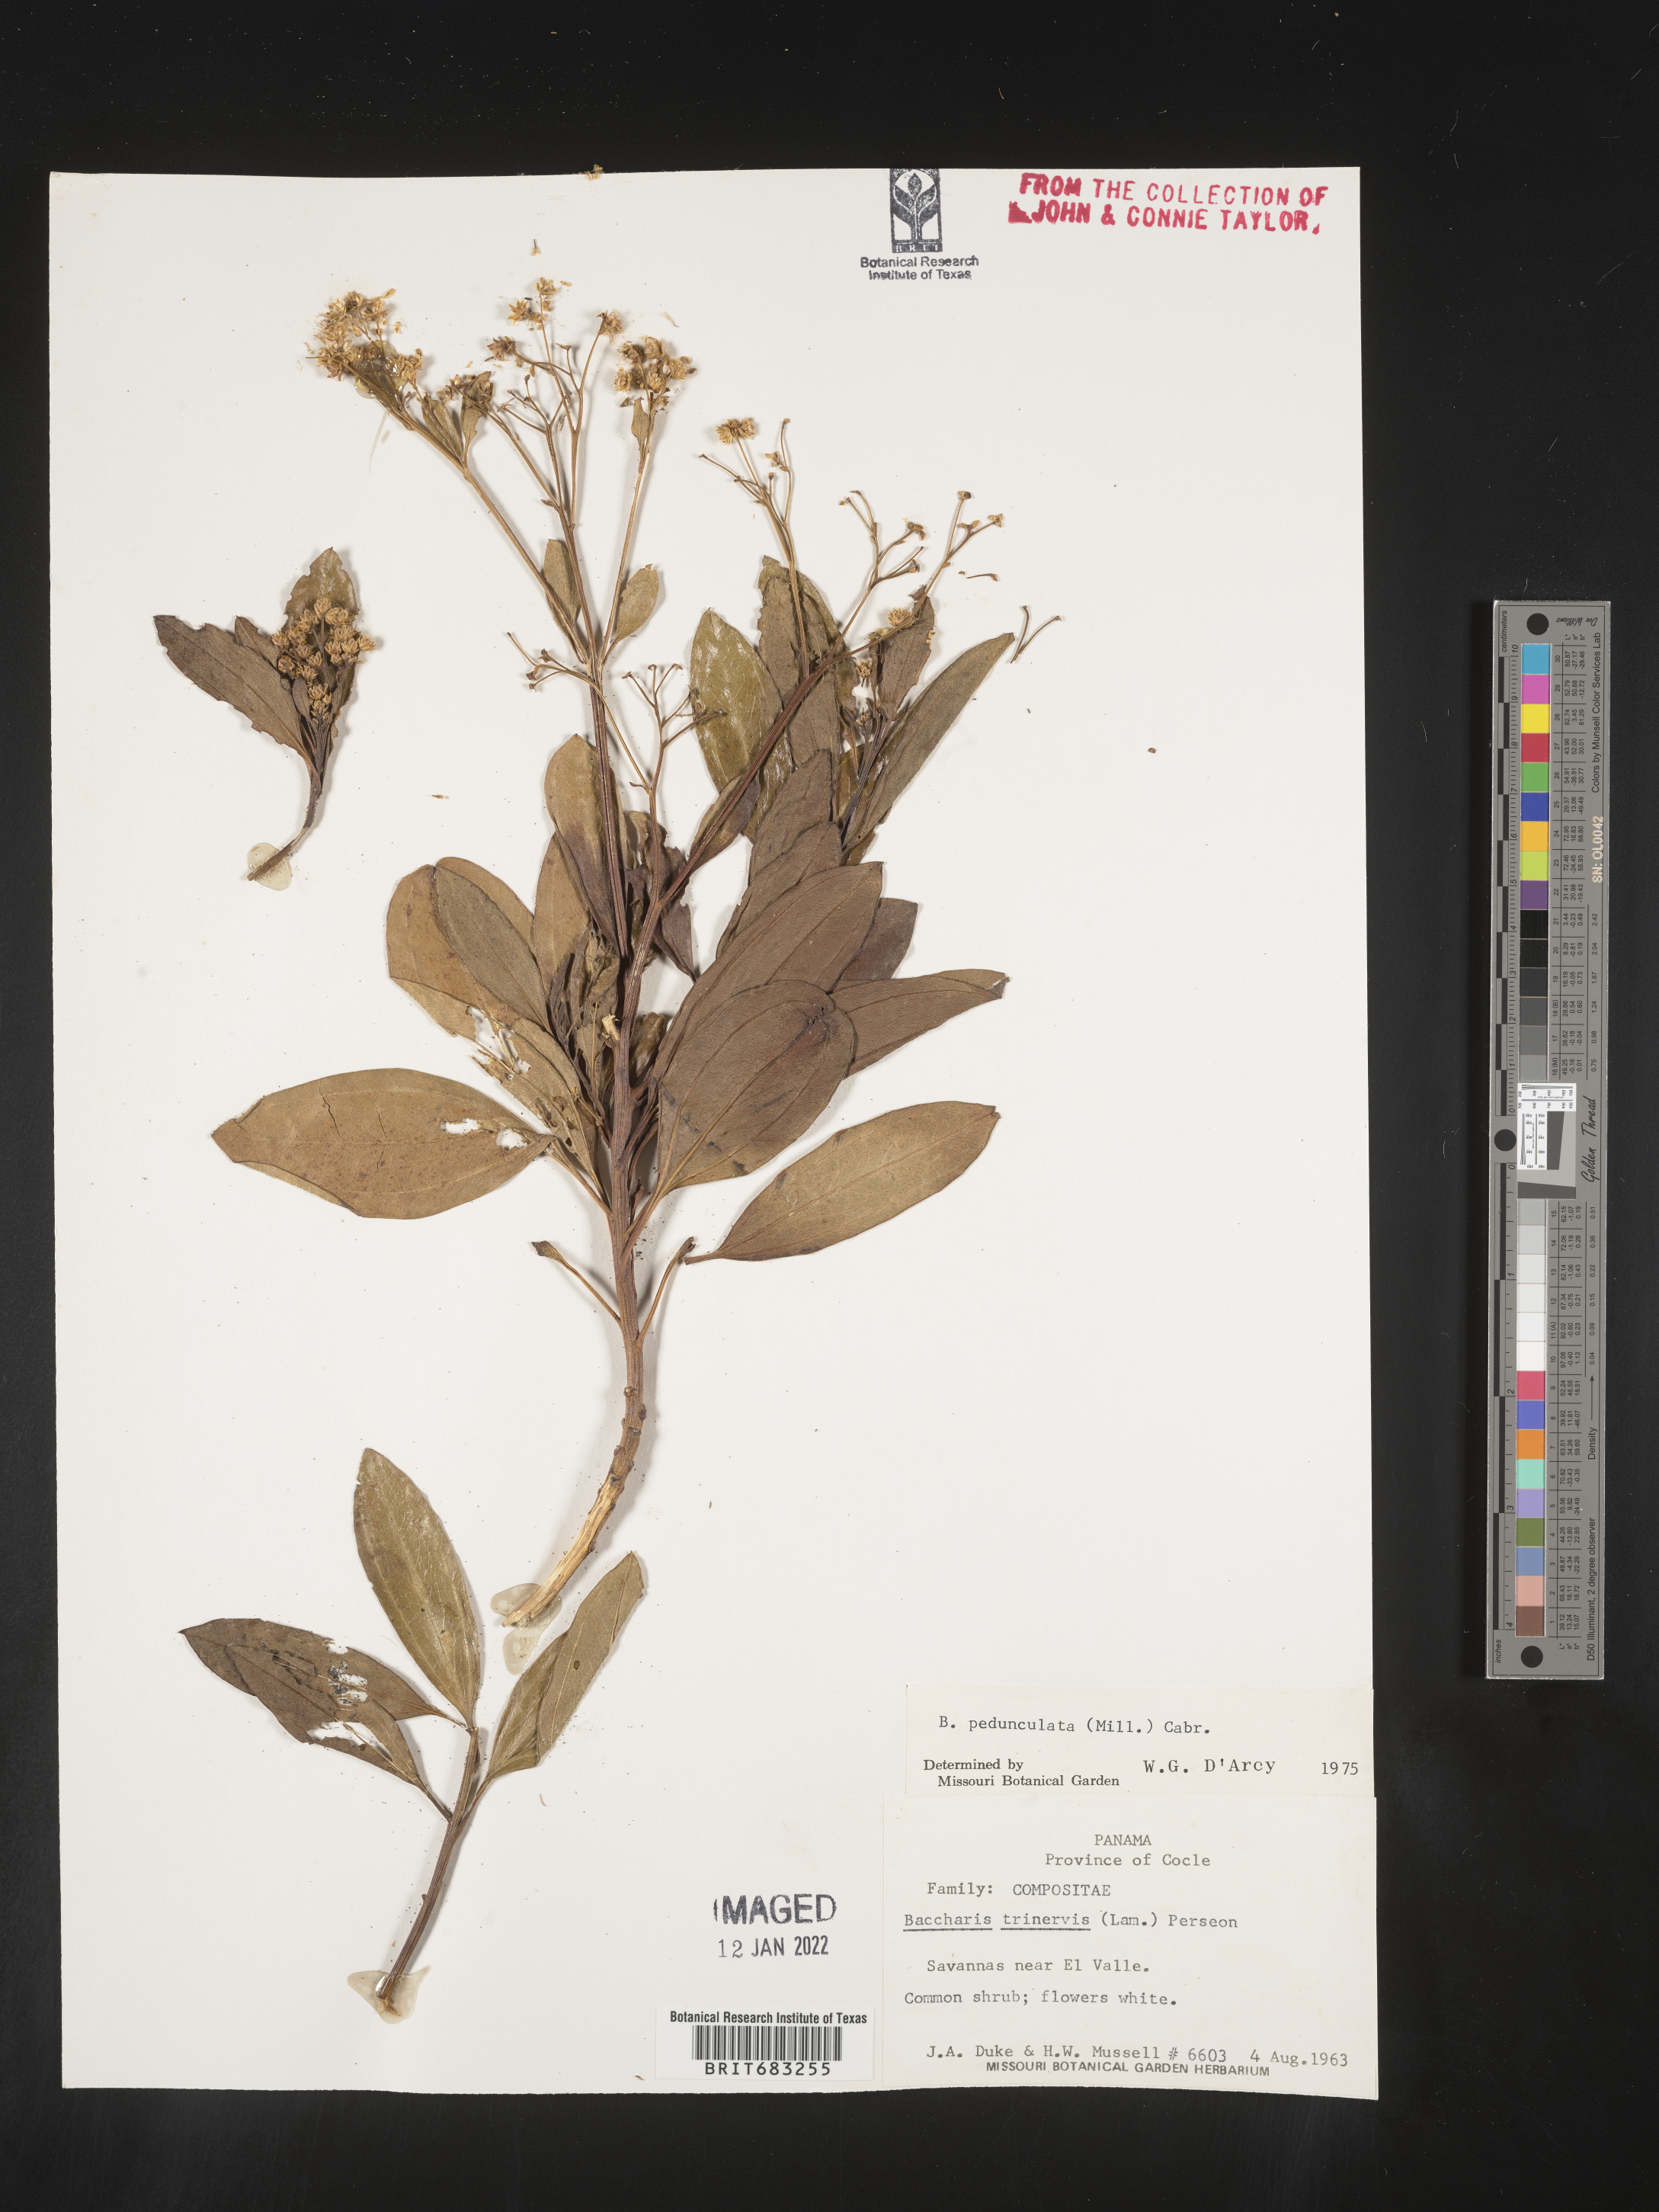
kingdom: Plantae
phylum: Tracheophyta
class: Magnoliopsida
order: Asterales
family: Asteraceae
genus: Baccharis
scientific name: Baccharis pedunculata
